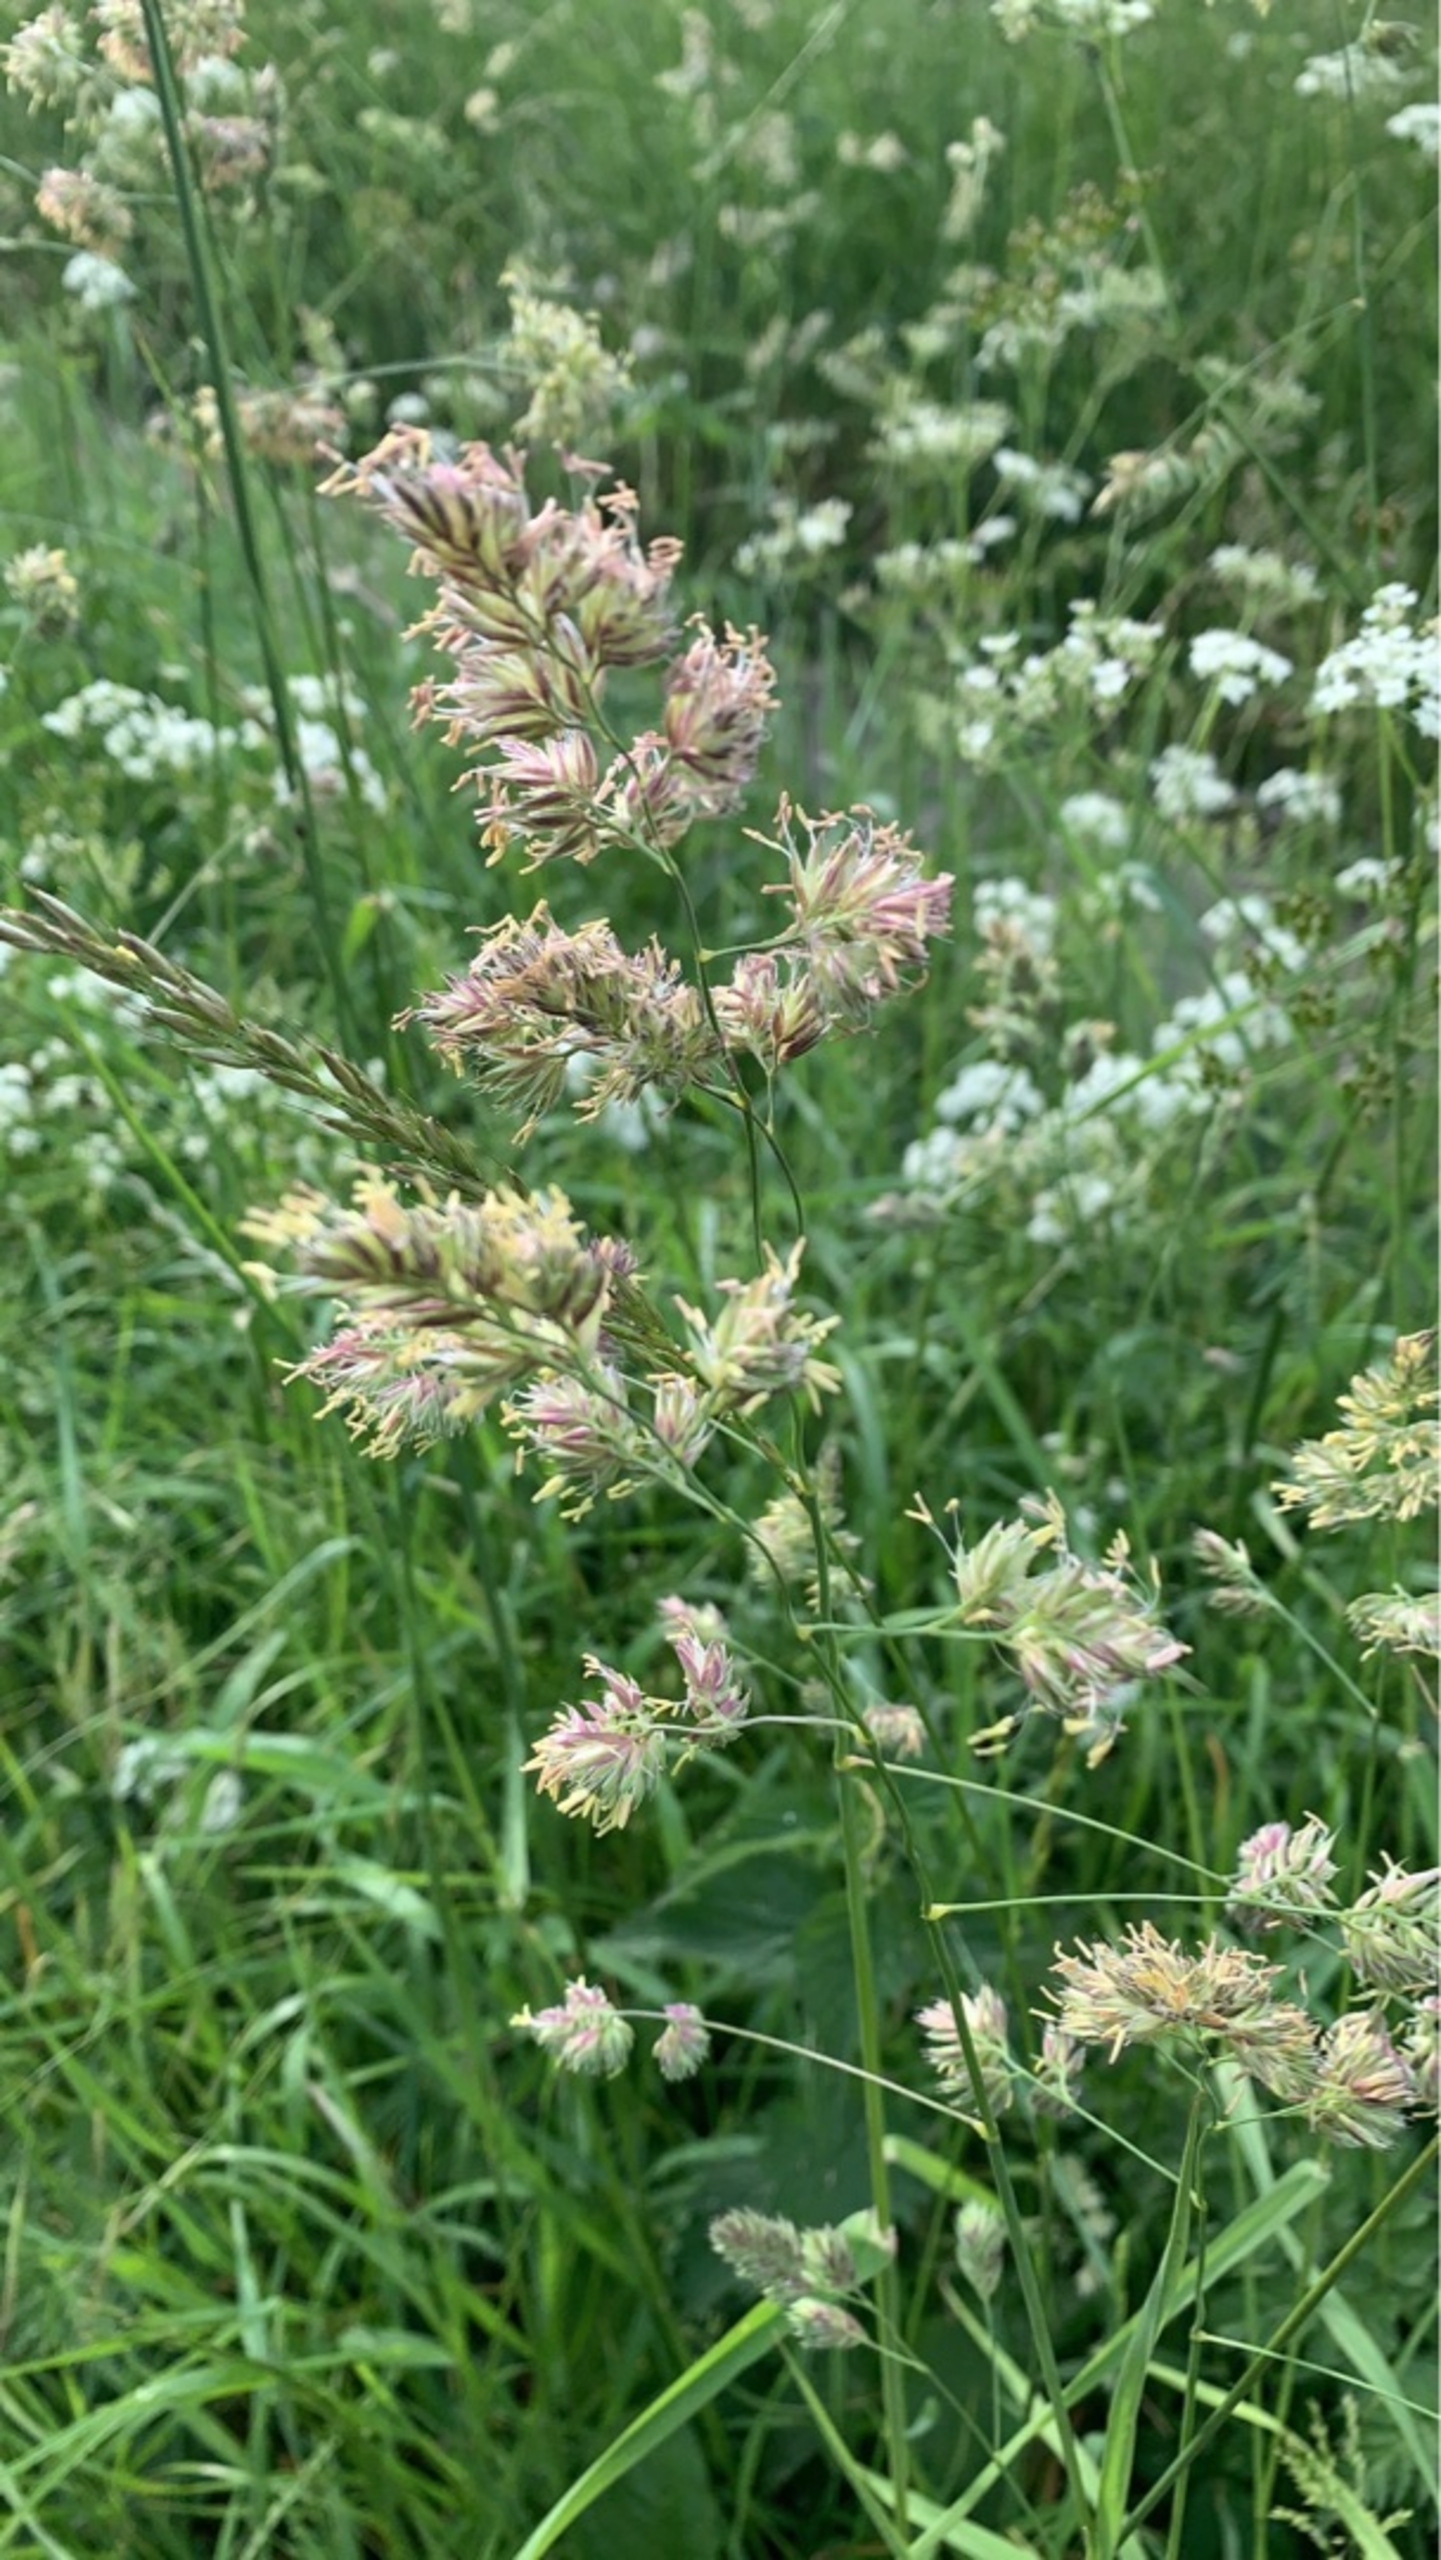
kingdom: Plantae
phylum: Tracheophyta
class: Liliopsida
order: Poales
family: Poaceae
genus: Dactylis
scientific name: Dactylis
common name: Hundegræsslægten
